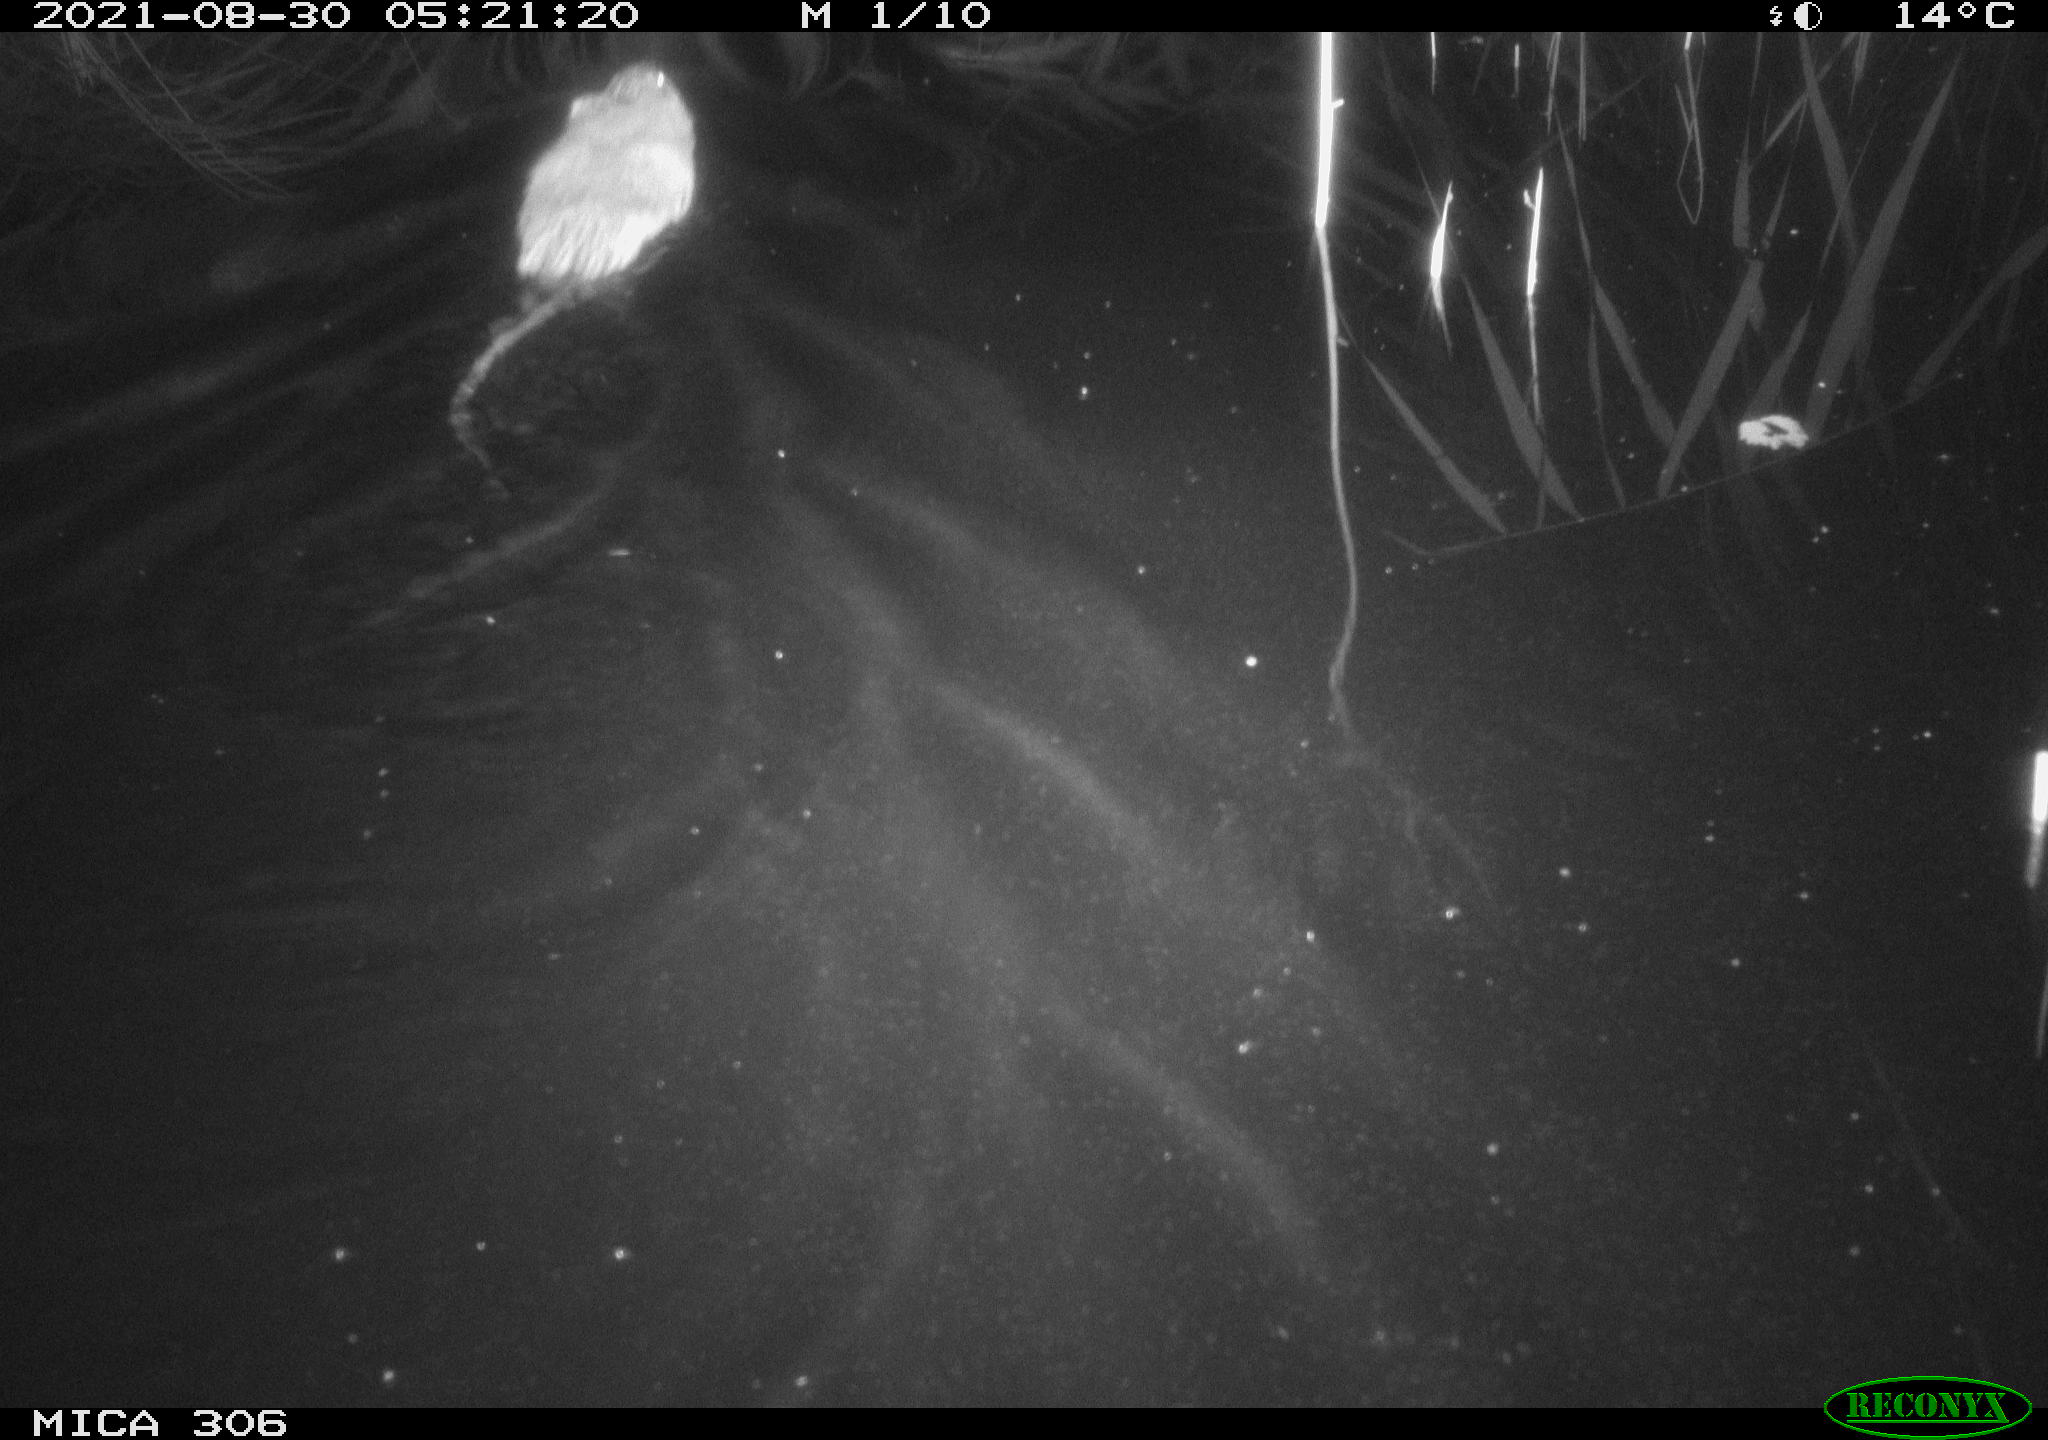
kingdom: Animalia
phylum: Chordata
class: Mammalia
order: Rodentia
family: Cricetidae
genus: Ondatra
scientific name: Ondatra zibethicus
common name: Muskrat
